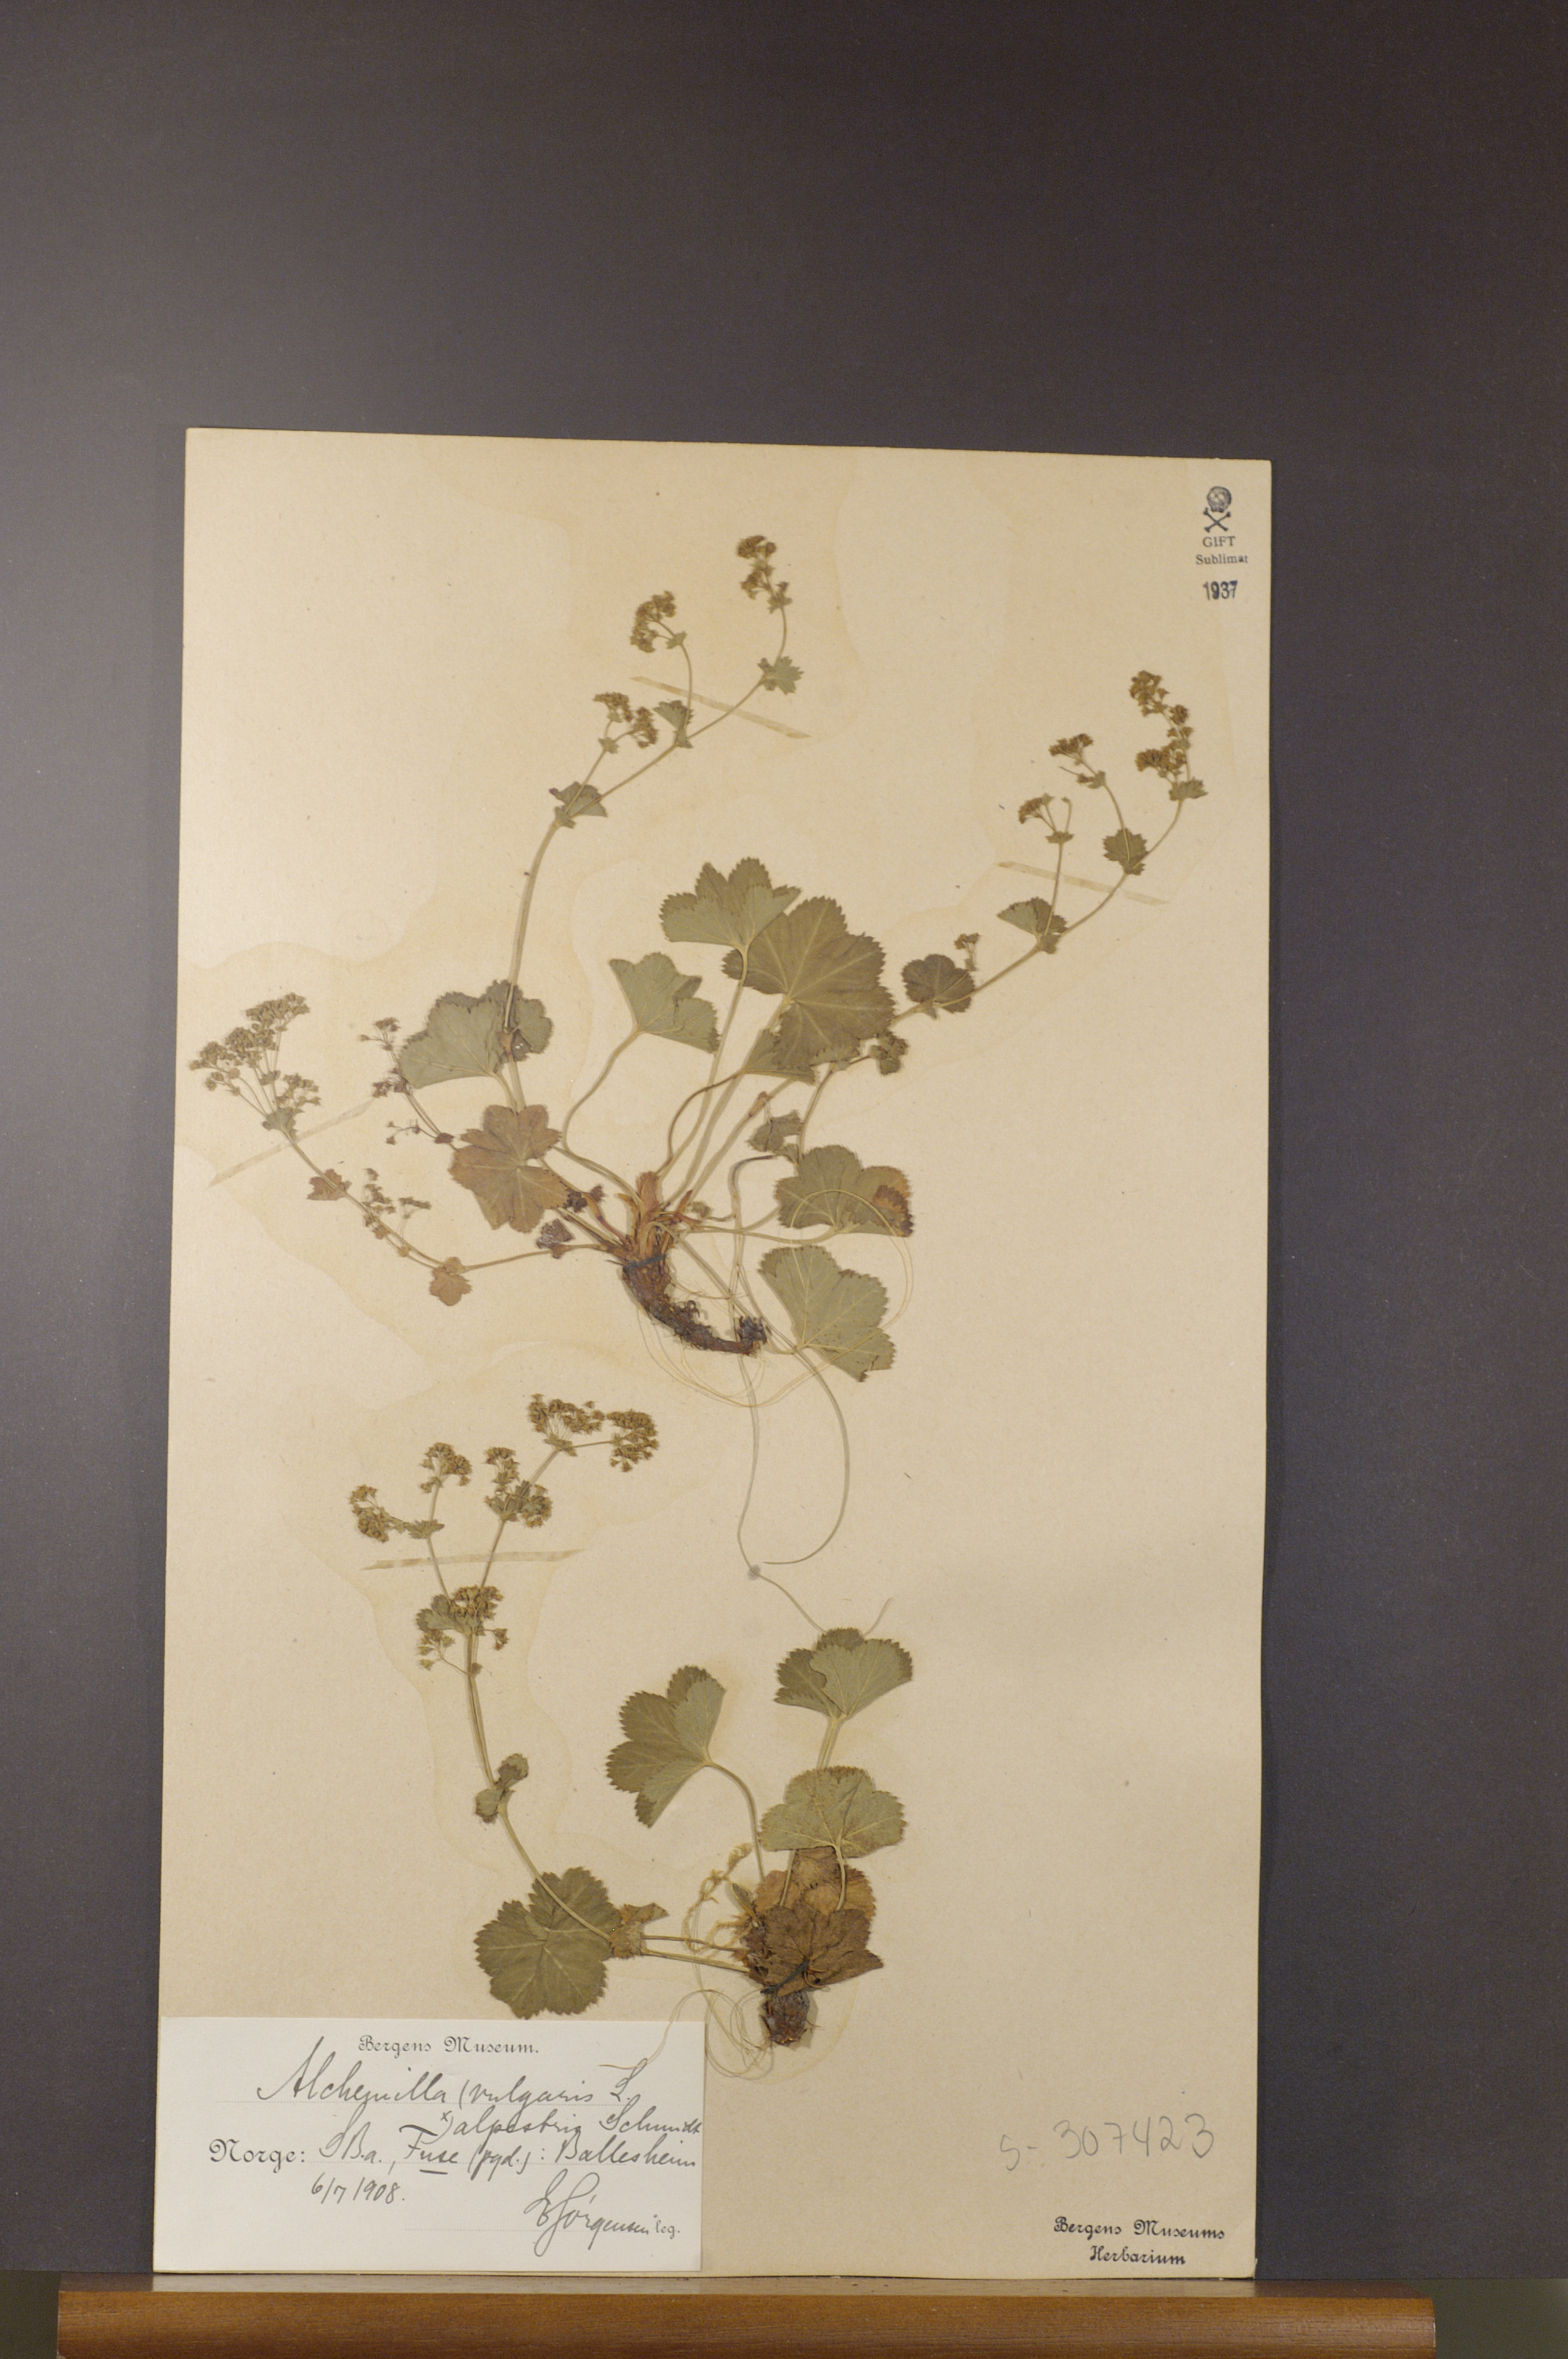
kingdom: Plantae
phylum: Tracheophyta
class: Magnoliopsida
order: Rosales
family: Rosaceae
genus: Alchemilla
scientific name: Alchemilla glabra
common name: Smooth lady's-mantle
